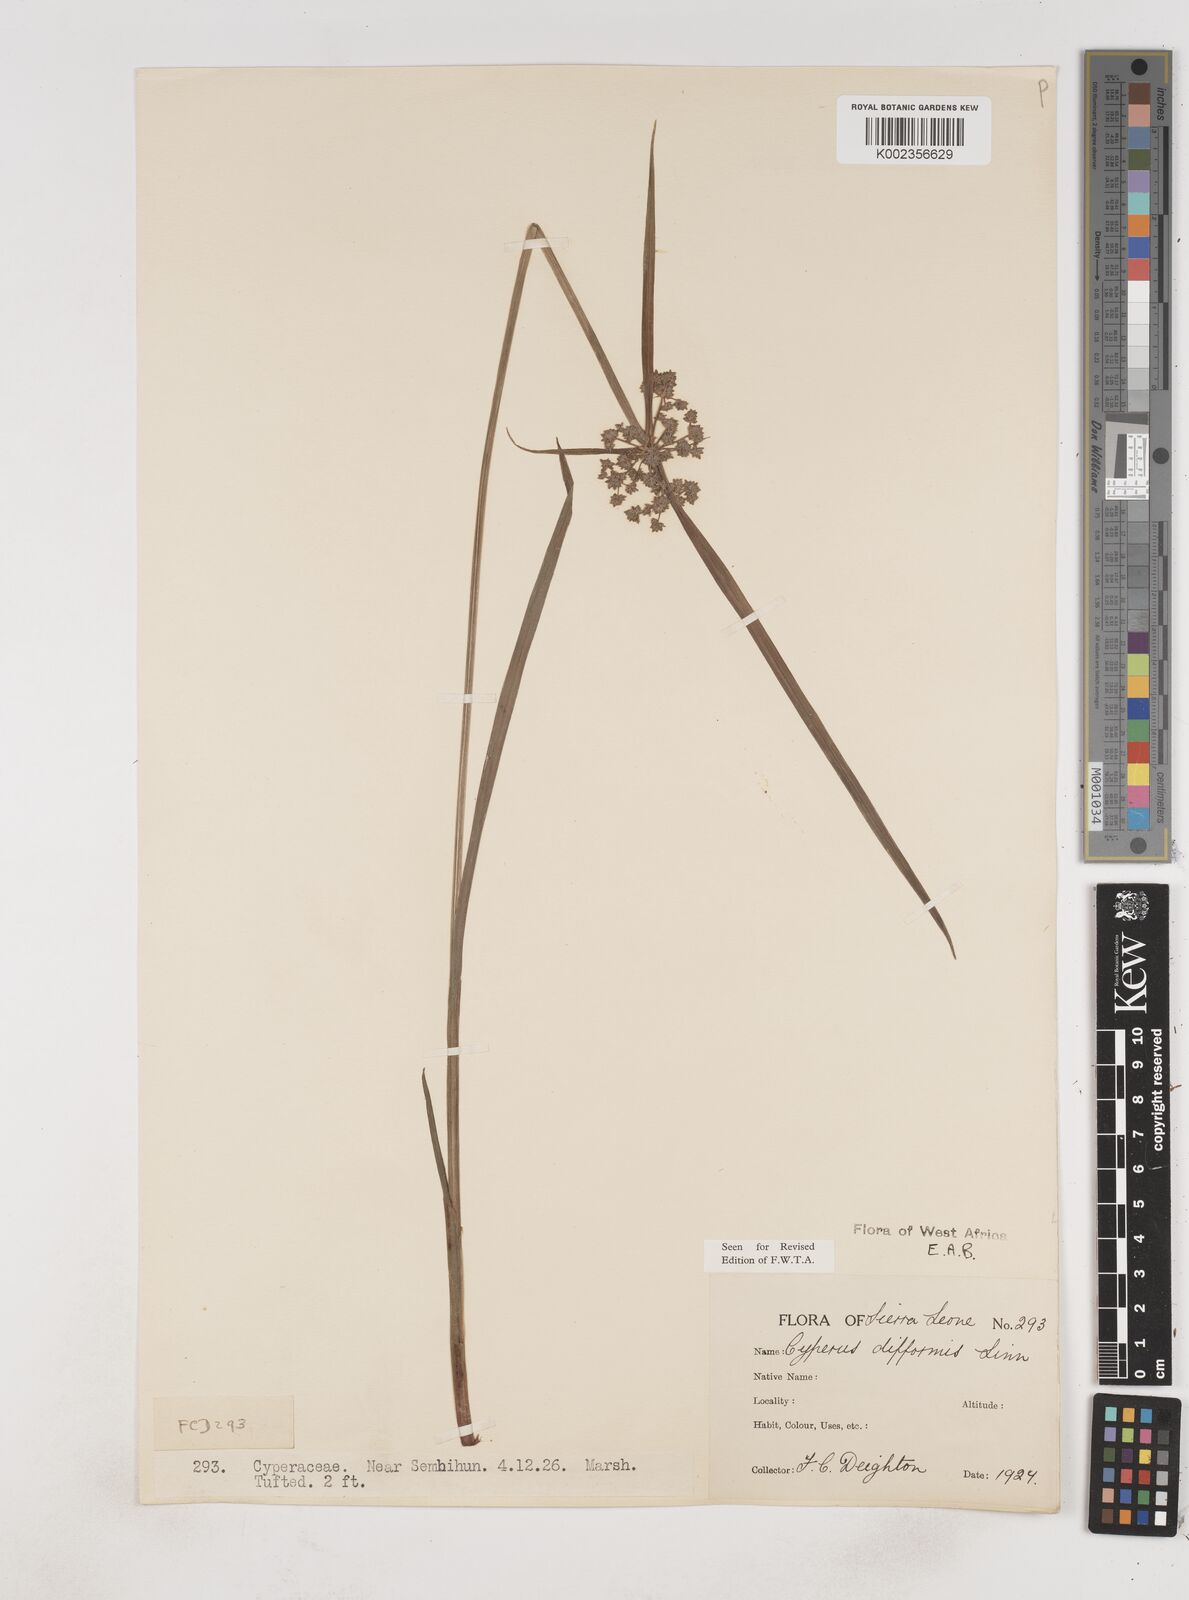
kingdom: Plantae
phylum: Tracheophyta
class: Liliopsida
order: Poales
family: Cyperaceae
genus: Cyperus
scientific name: Cyperus difformis
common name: Variable flatsedge
